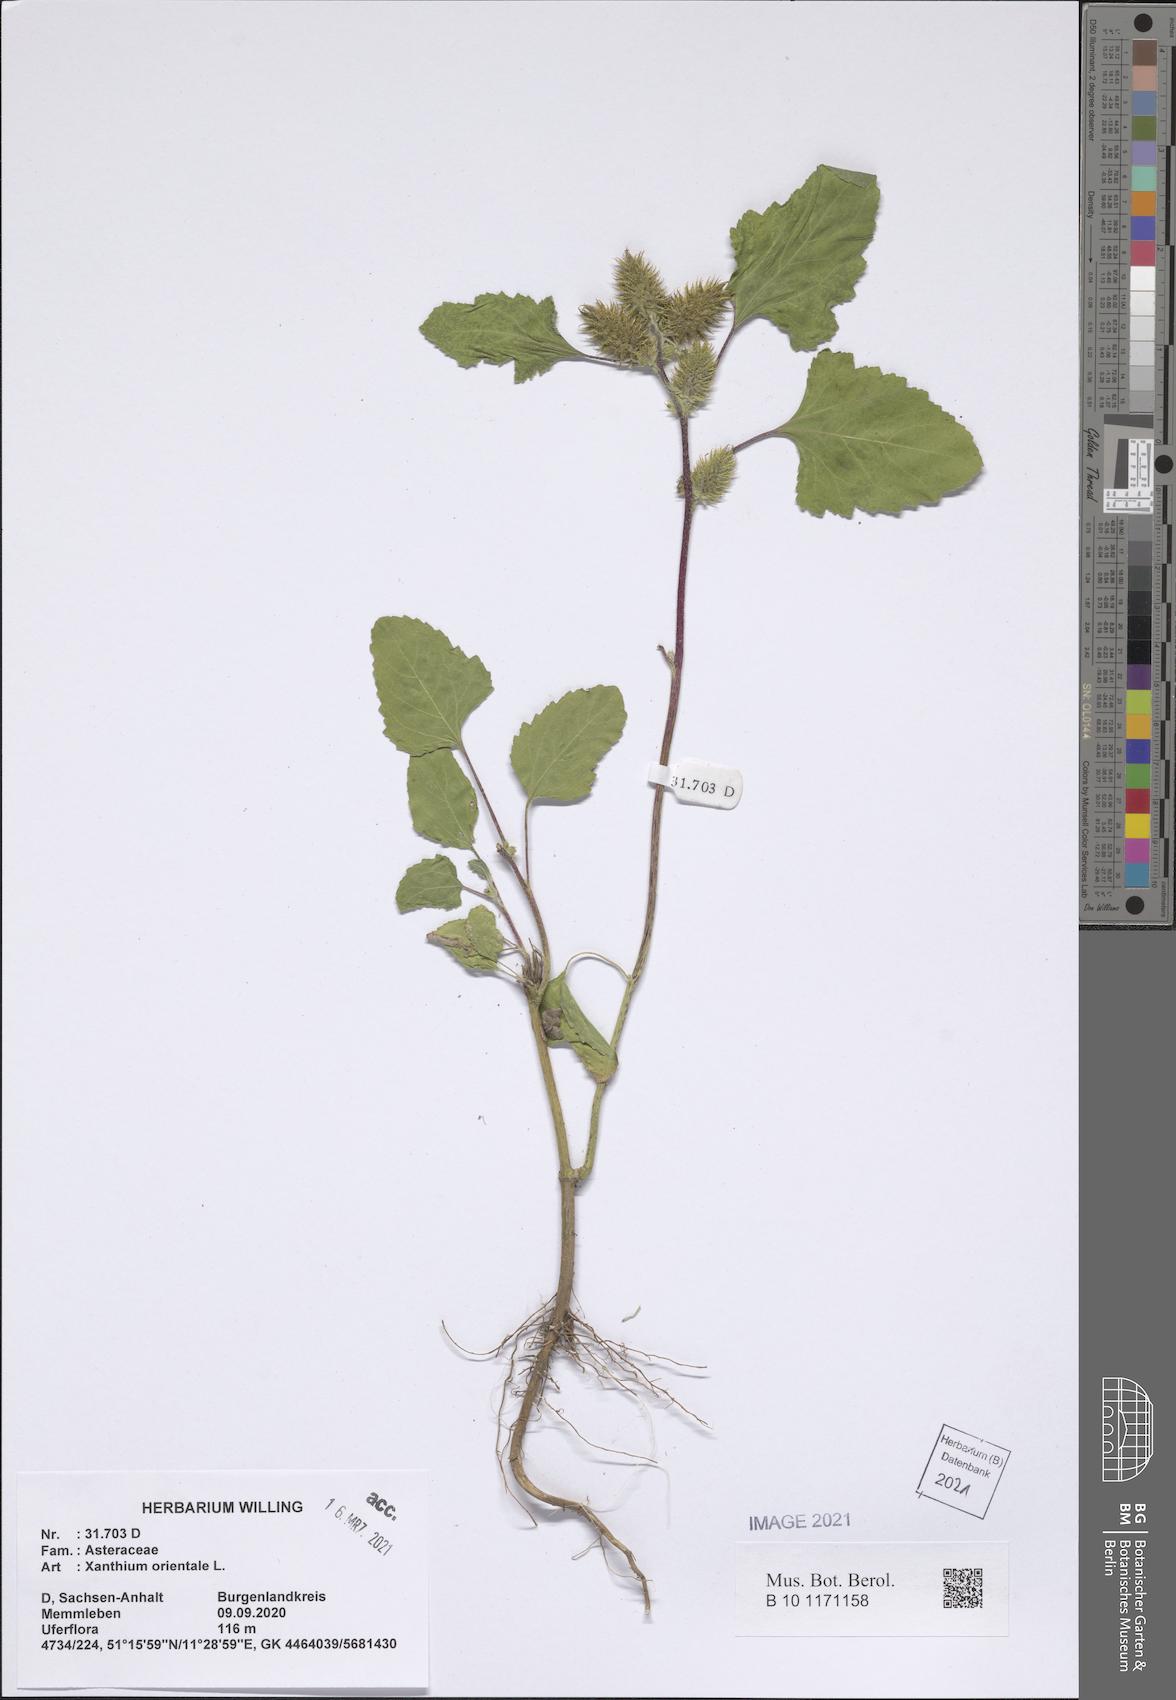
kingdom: Plantae
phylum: Tracheophyta
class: Magnoliopsida
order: Asterales
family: Asteraceae
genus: Xanthium
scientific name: Xanthium orientale
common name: Californian burr
